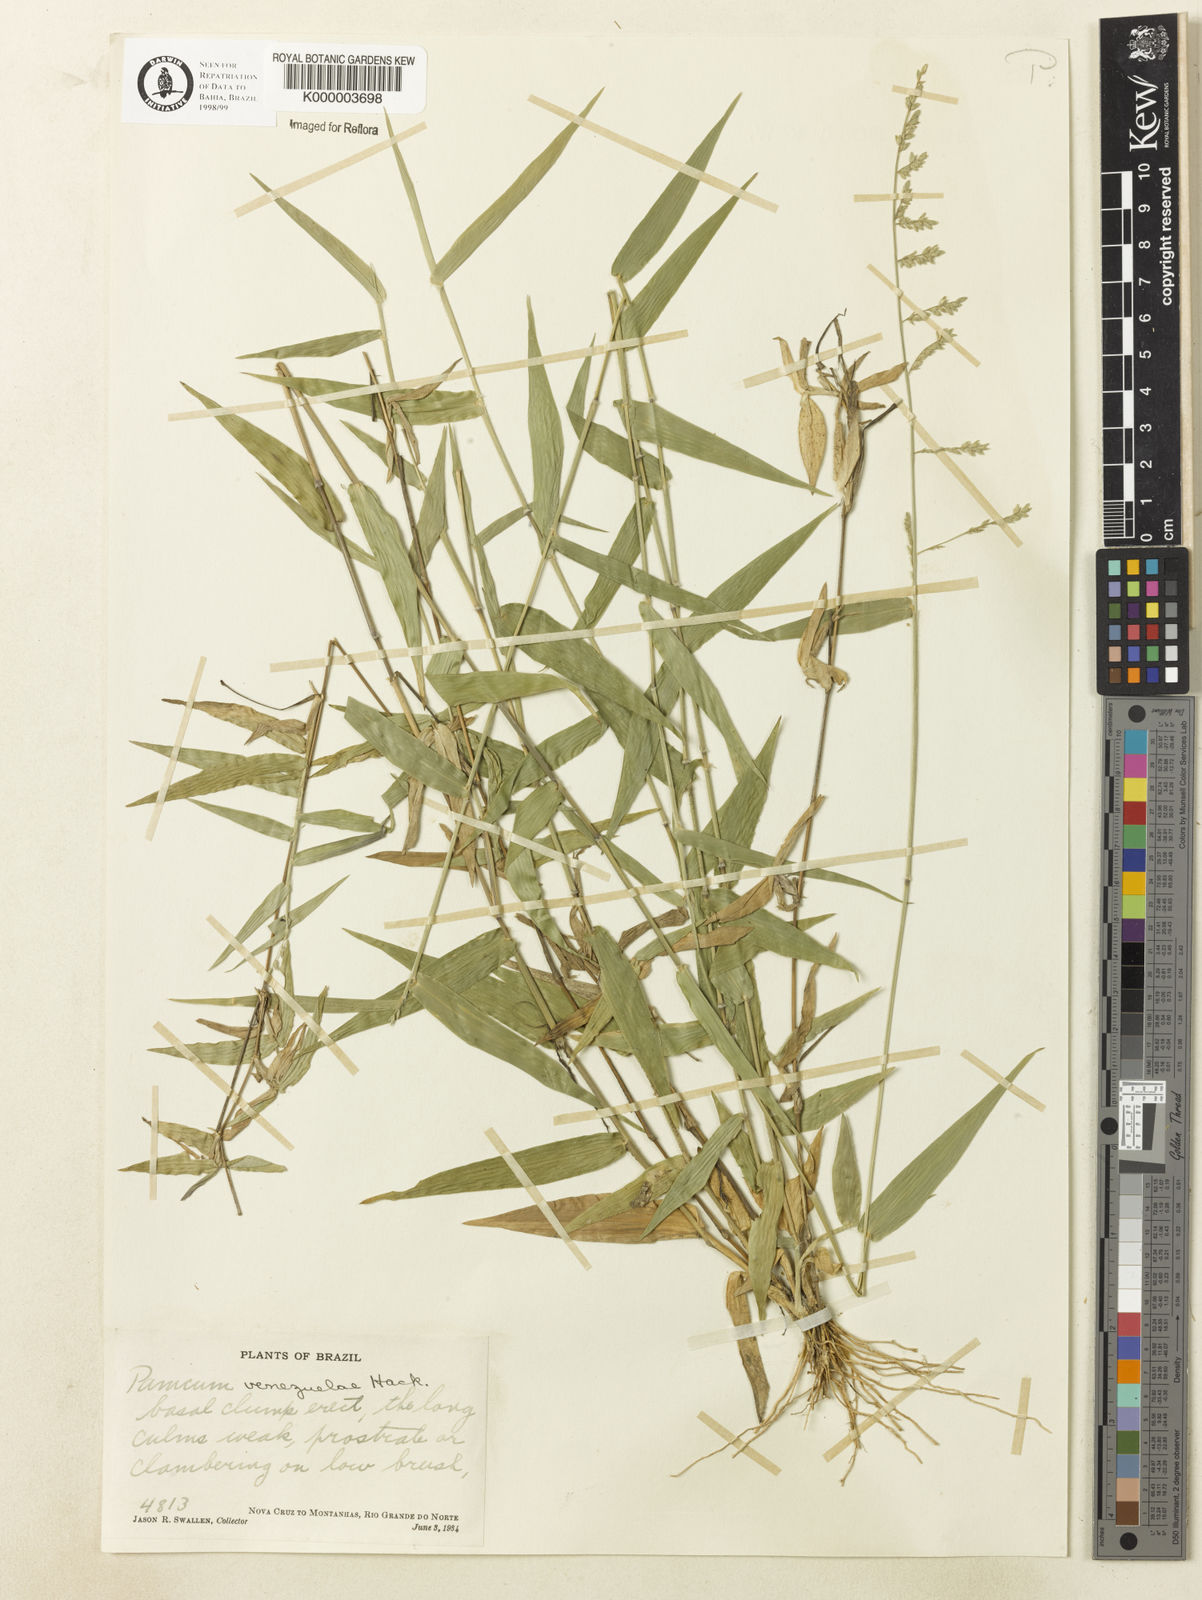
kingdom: Plantae
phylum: Tracheophyta
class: Liliopsida
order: Poales
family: Poaceae
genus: Panicum
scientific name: Panicum venezuelae
